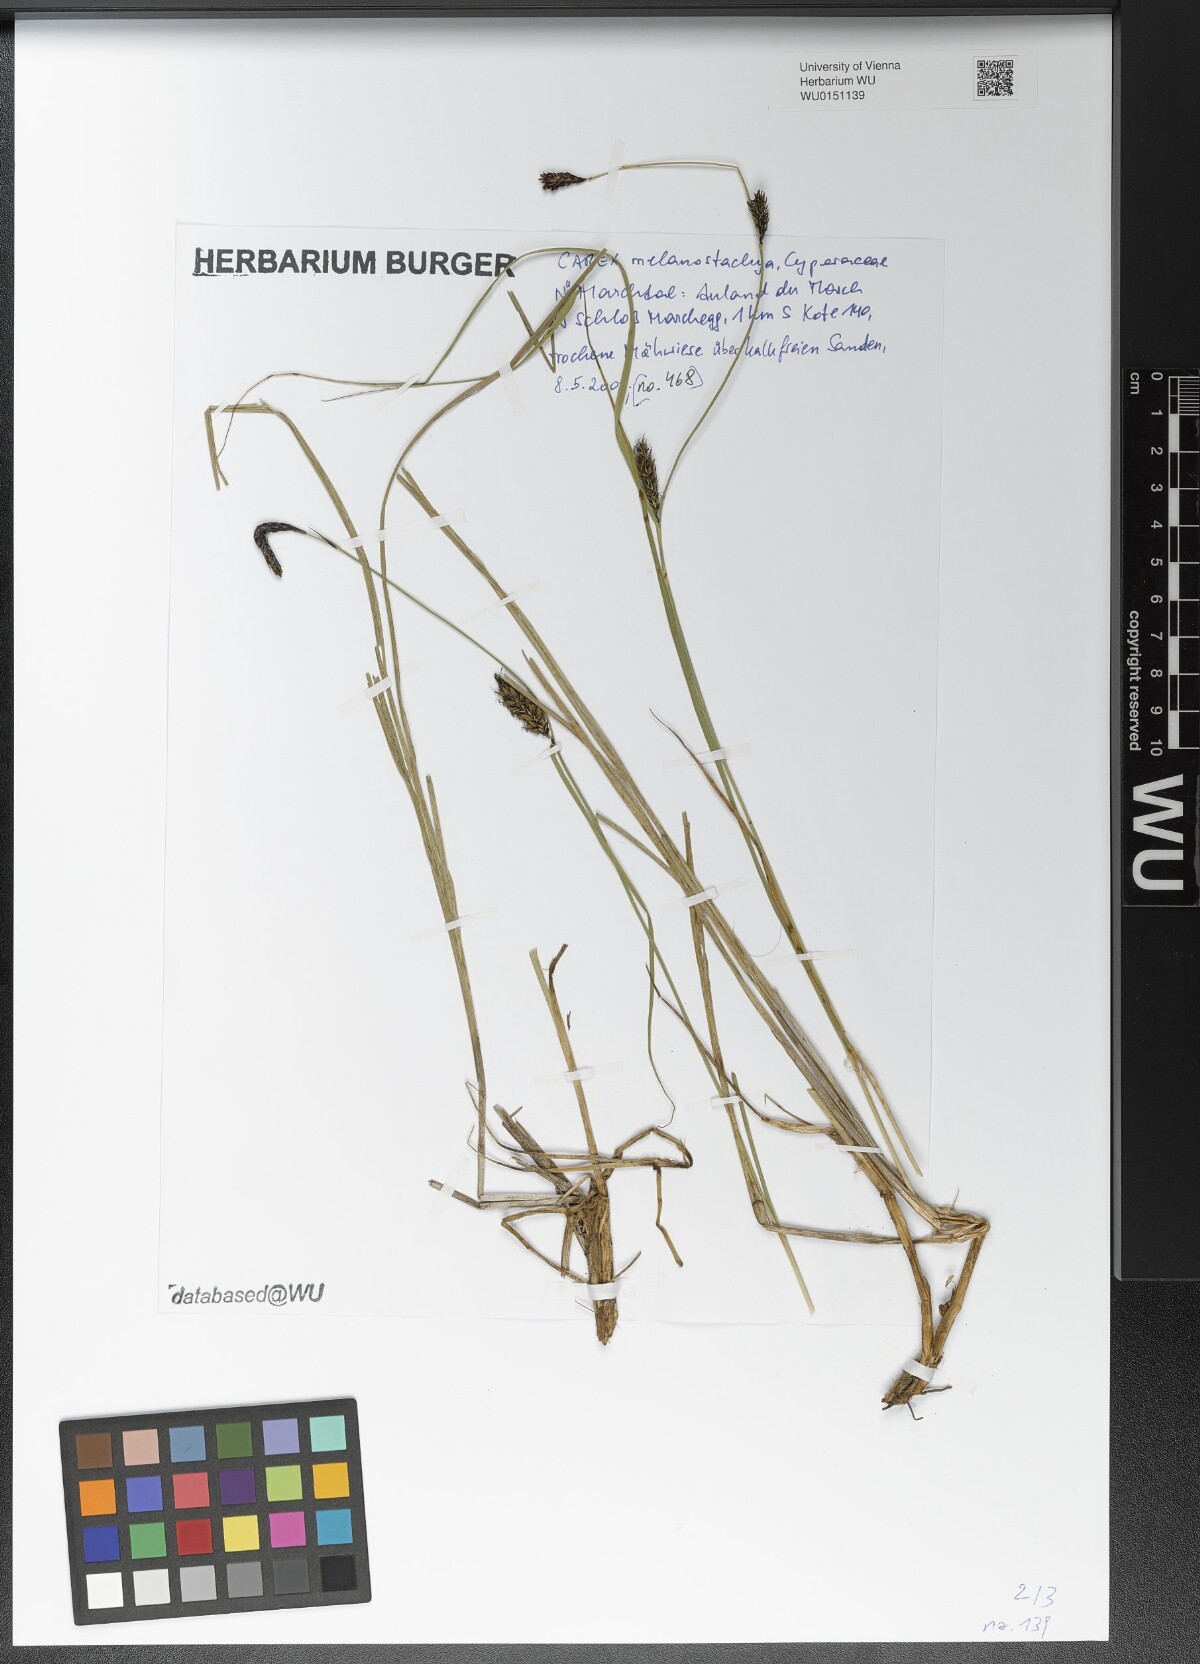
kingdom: Plantae
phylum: Tracheophyta
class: Liliopsida
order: Poales
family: Cyperaceae
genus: Carex
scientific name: Carex melanostachya
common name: Black-spiked sedge
